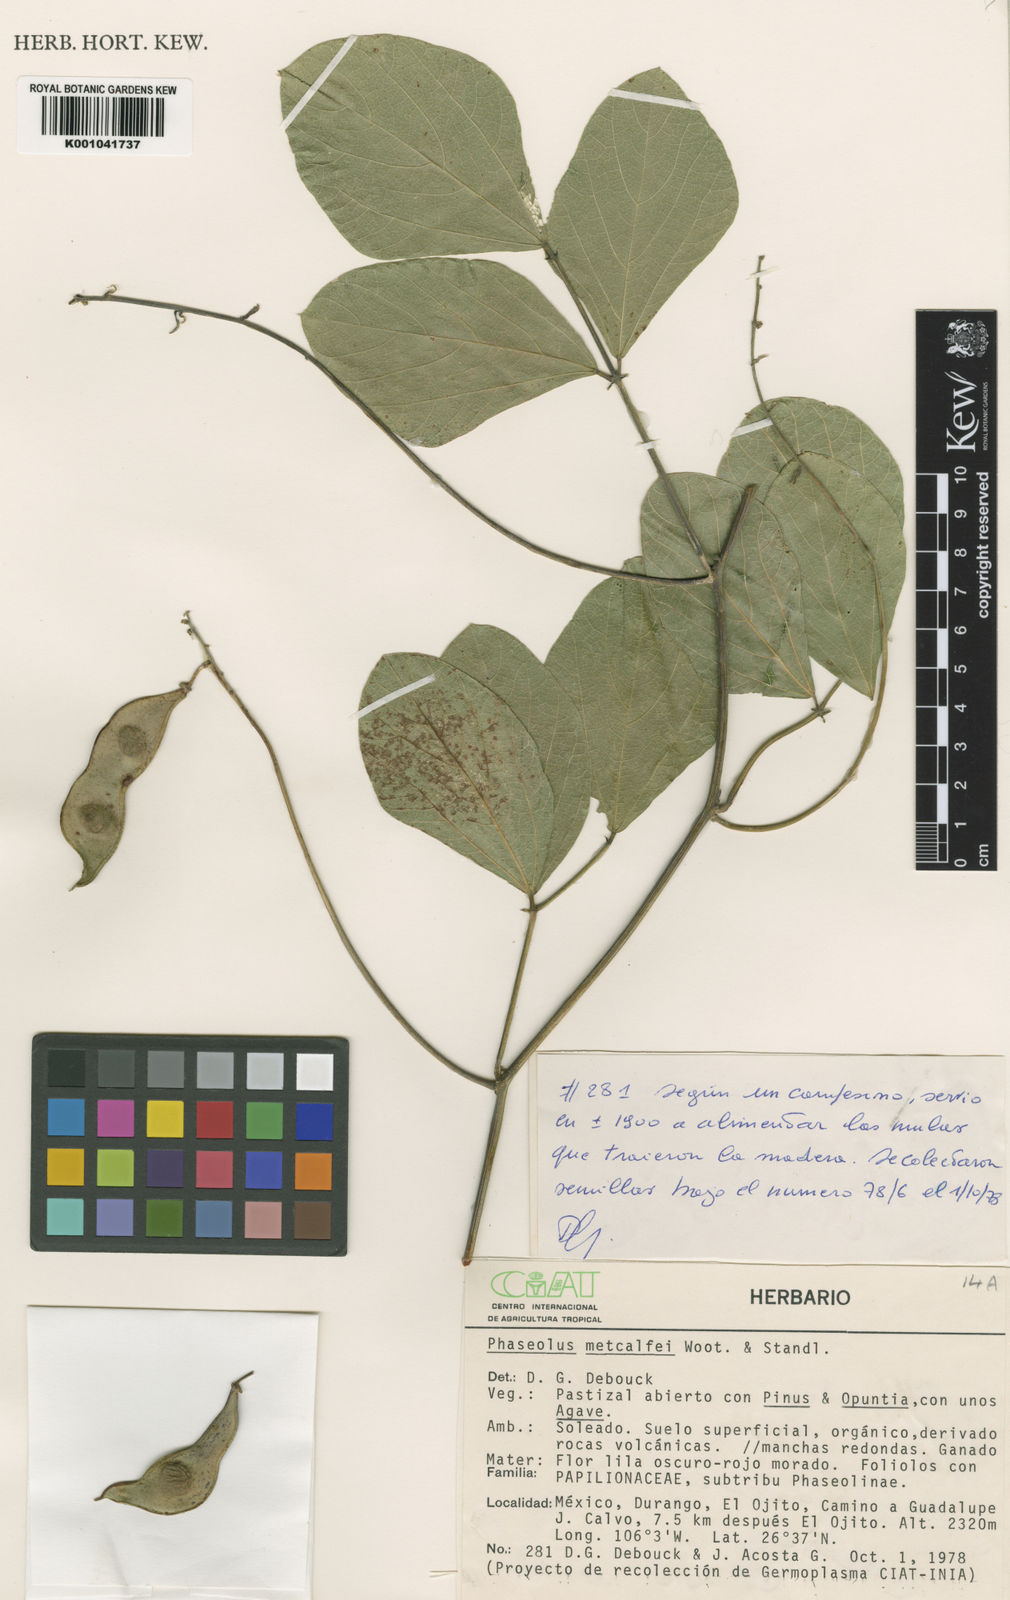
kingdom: Plantae
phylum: Tracheophyta
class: Magnoliopsida
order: Fabales
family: Fabaceae
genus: Phaseolus
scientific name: Phaseolus
